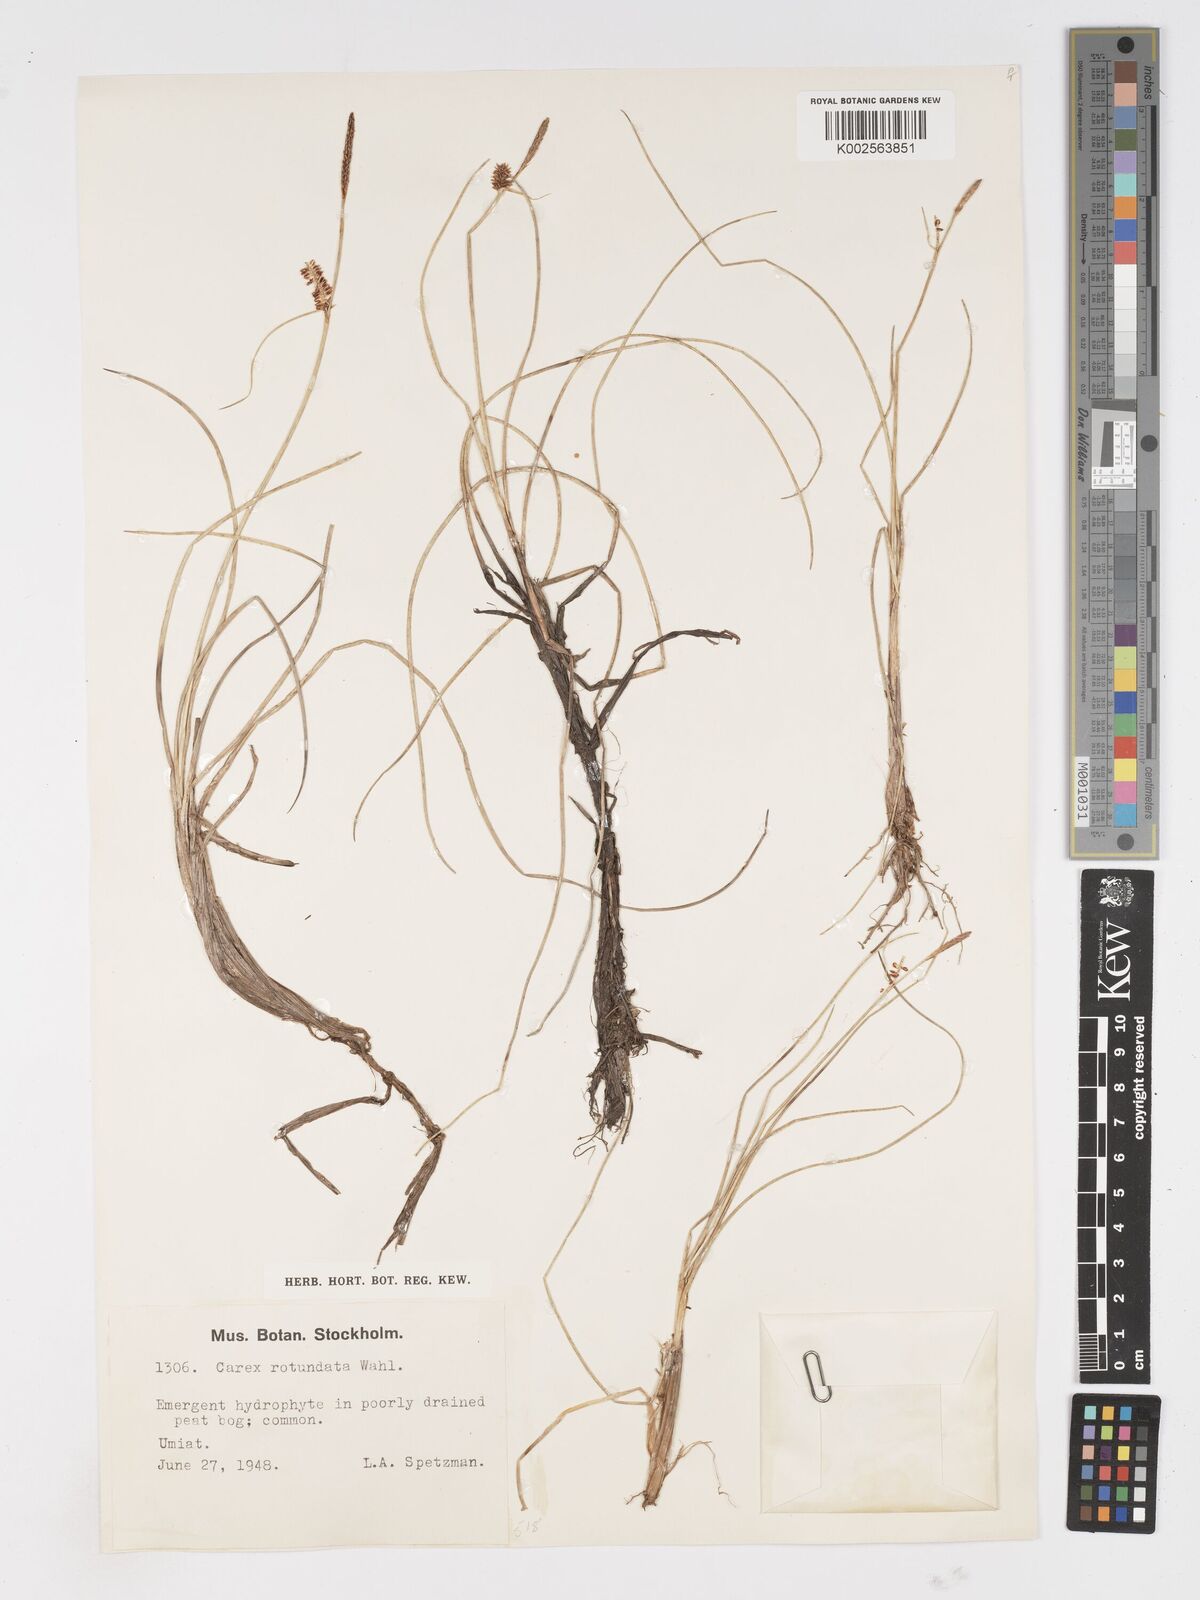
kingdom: Plantae
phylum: Tracheophyta
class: Liliopsida
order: Poales
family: Cyperaceae
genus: Carex
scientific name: Carex rotundata
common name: Round-fruited sedge
